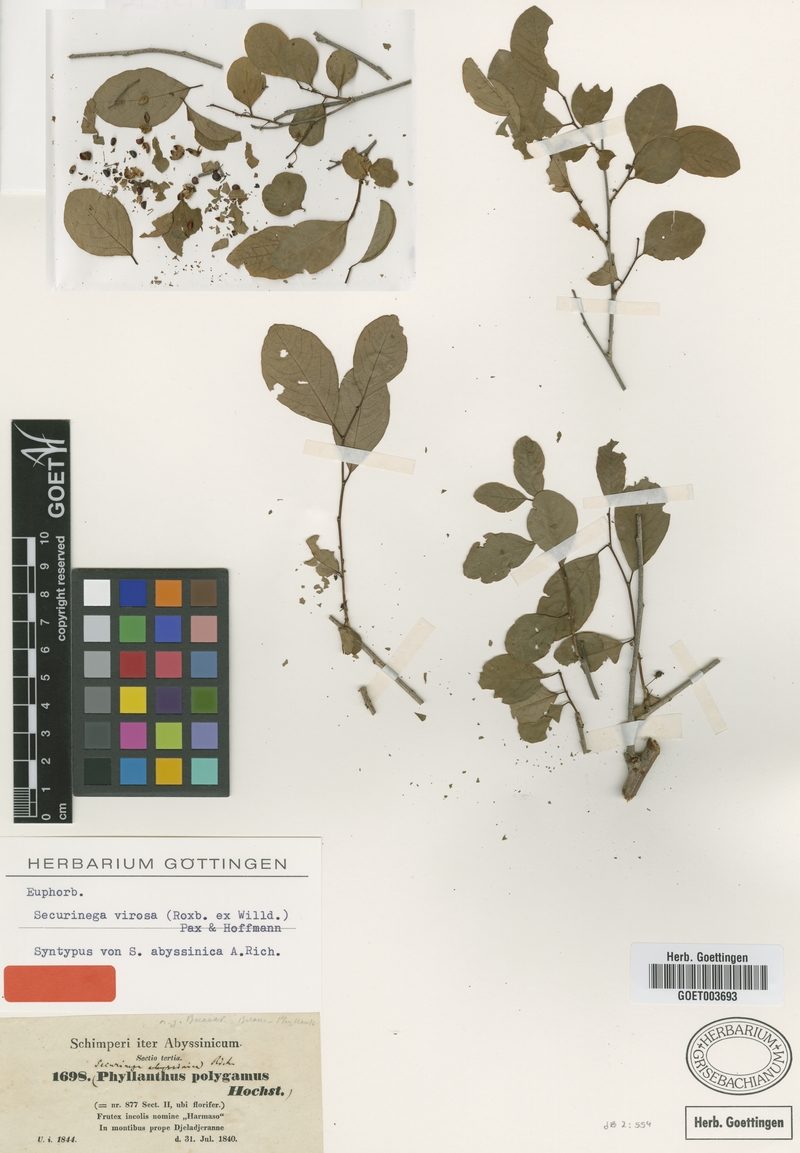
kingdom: Plantae
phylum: Tracheophyta
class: Magnoliopsida
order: Malpighiales
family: Phyllanthaceae
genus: Flueggea
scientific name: Flueggea virosa
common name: Common bushweed
